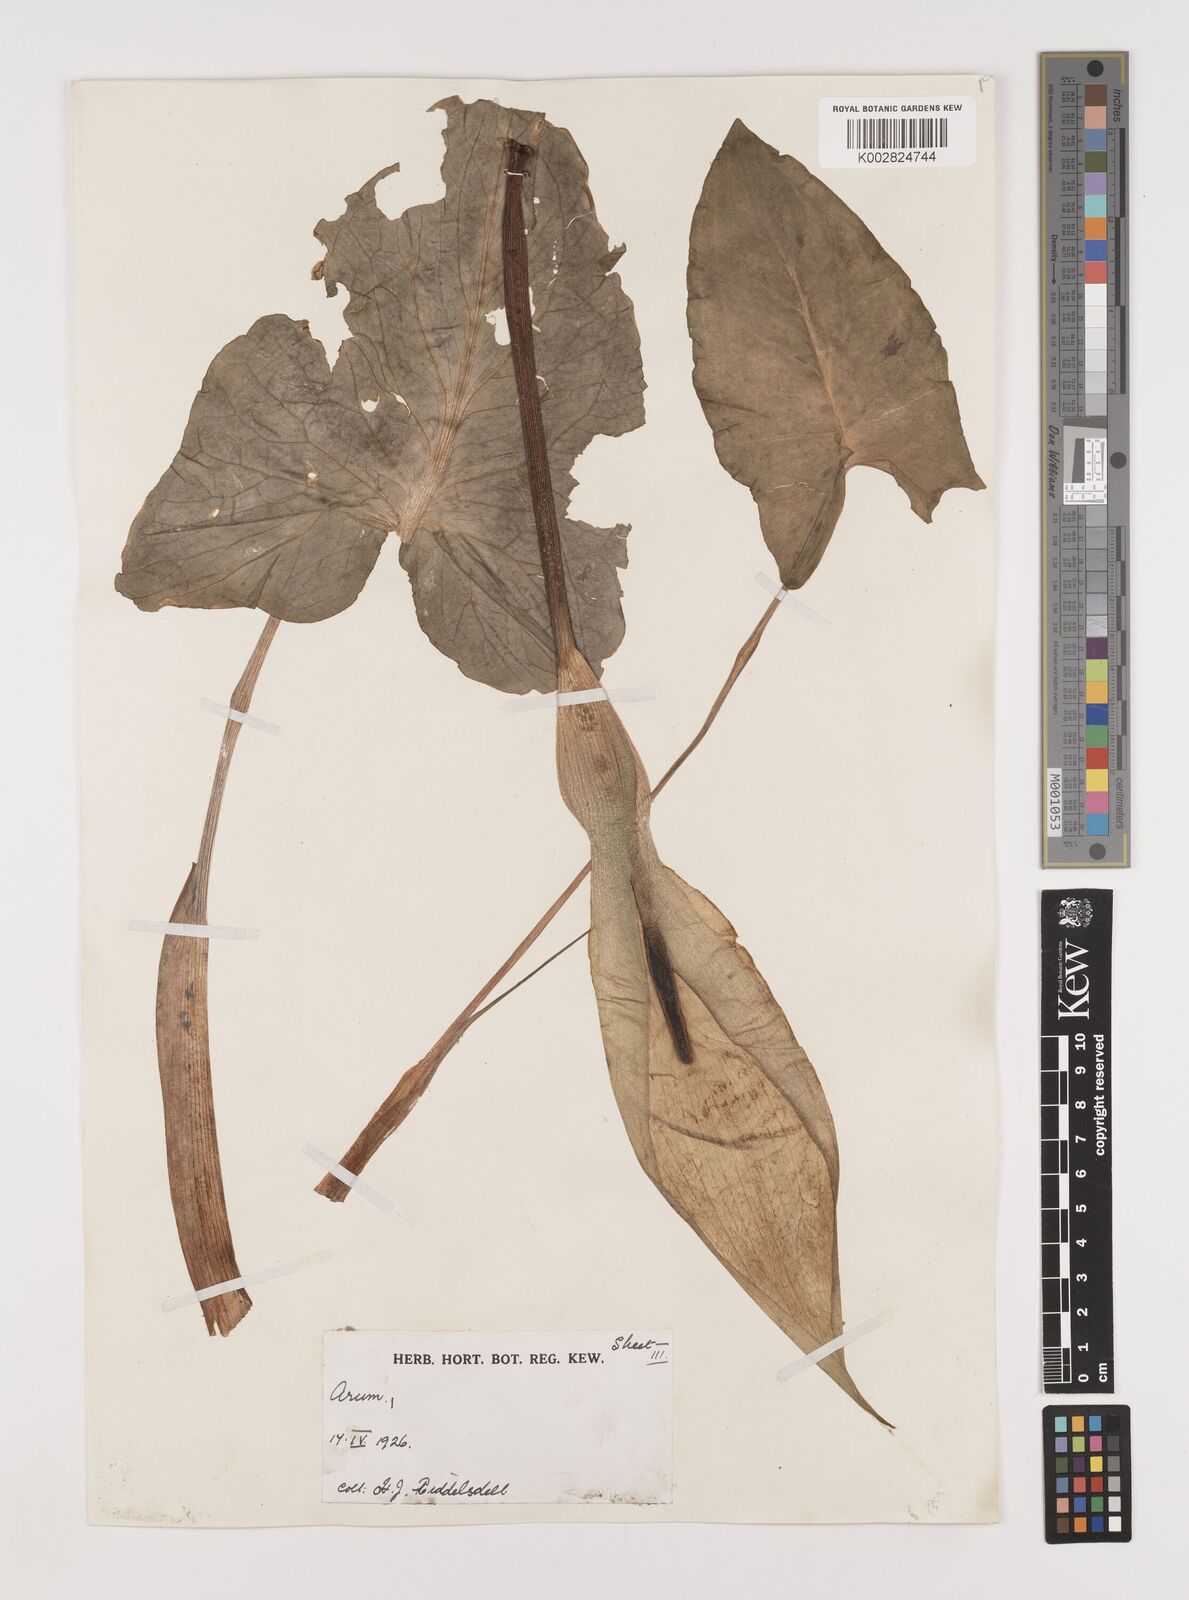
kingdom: Plantae
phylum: Tracheophyta
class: Liliopsida
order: Alismatales
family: Araceae
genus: Arum
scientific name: Arum maculatum
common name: Lords-and-ladies
